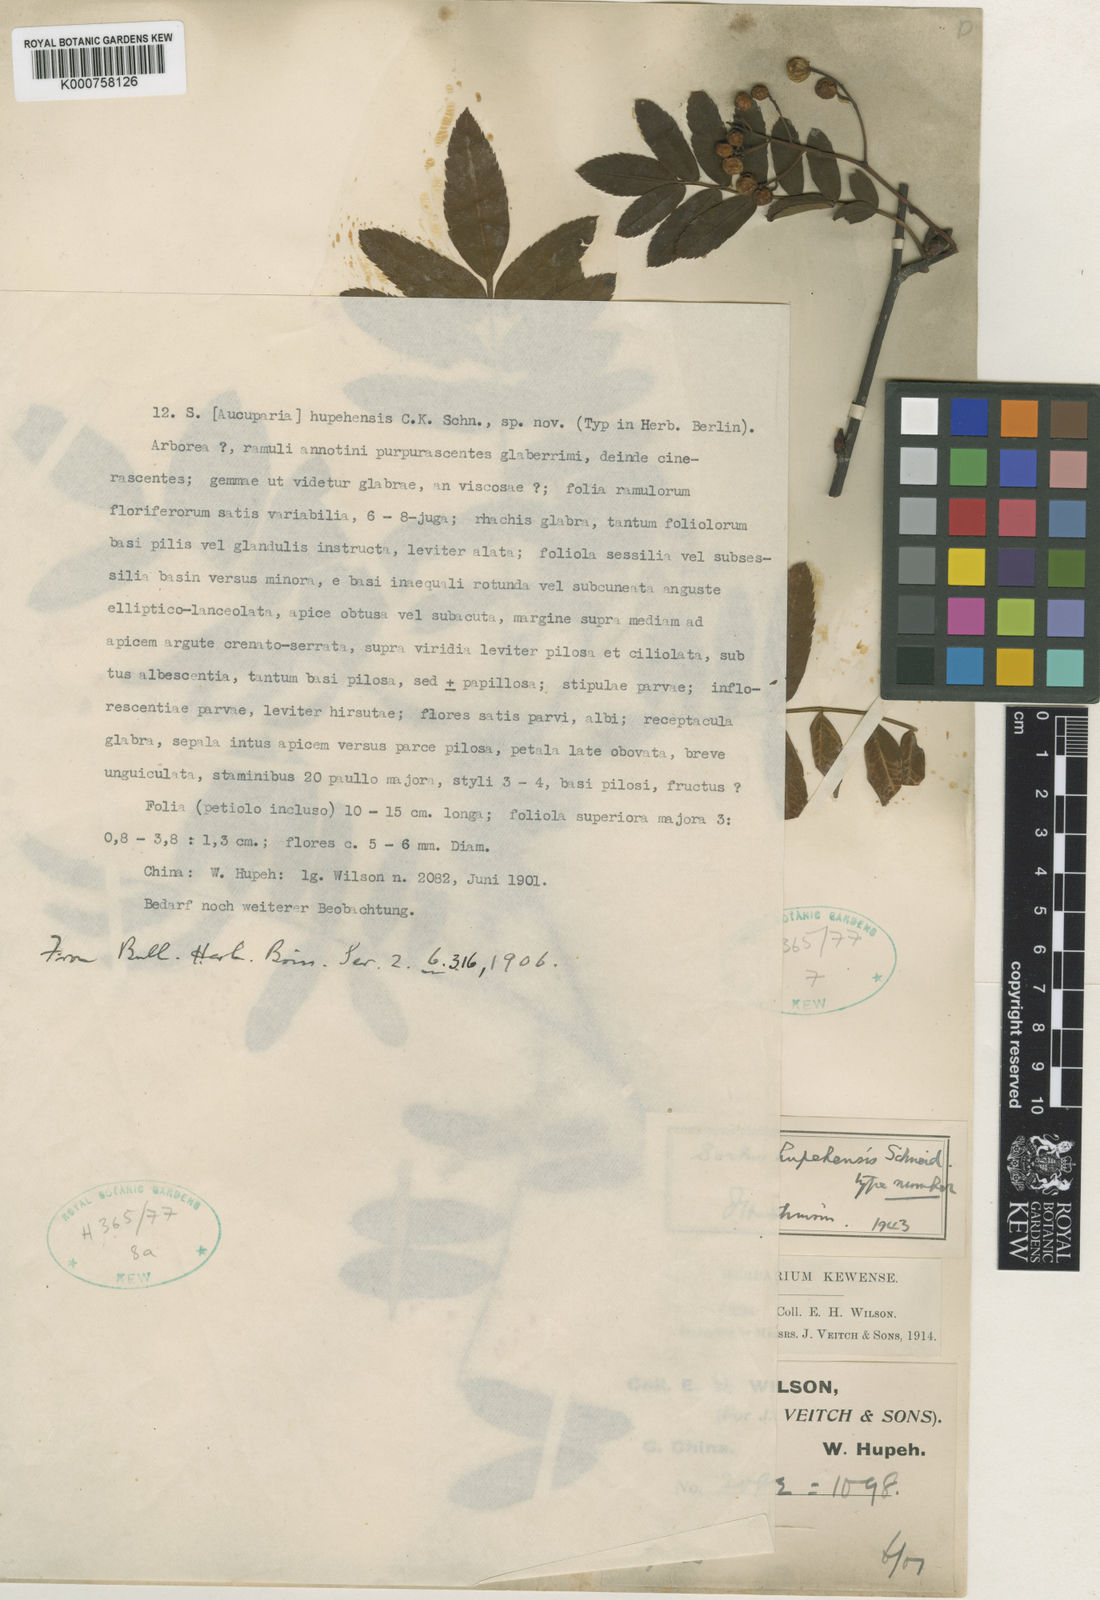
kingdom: Plantae
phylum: Tracheophyta
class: Magnoliopsida
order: Rosales
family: Rosaceae
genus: Sorbus
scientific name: Sorbus hupehensis
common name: Hupeh rowan
